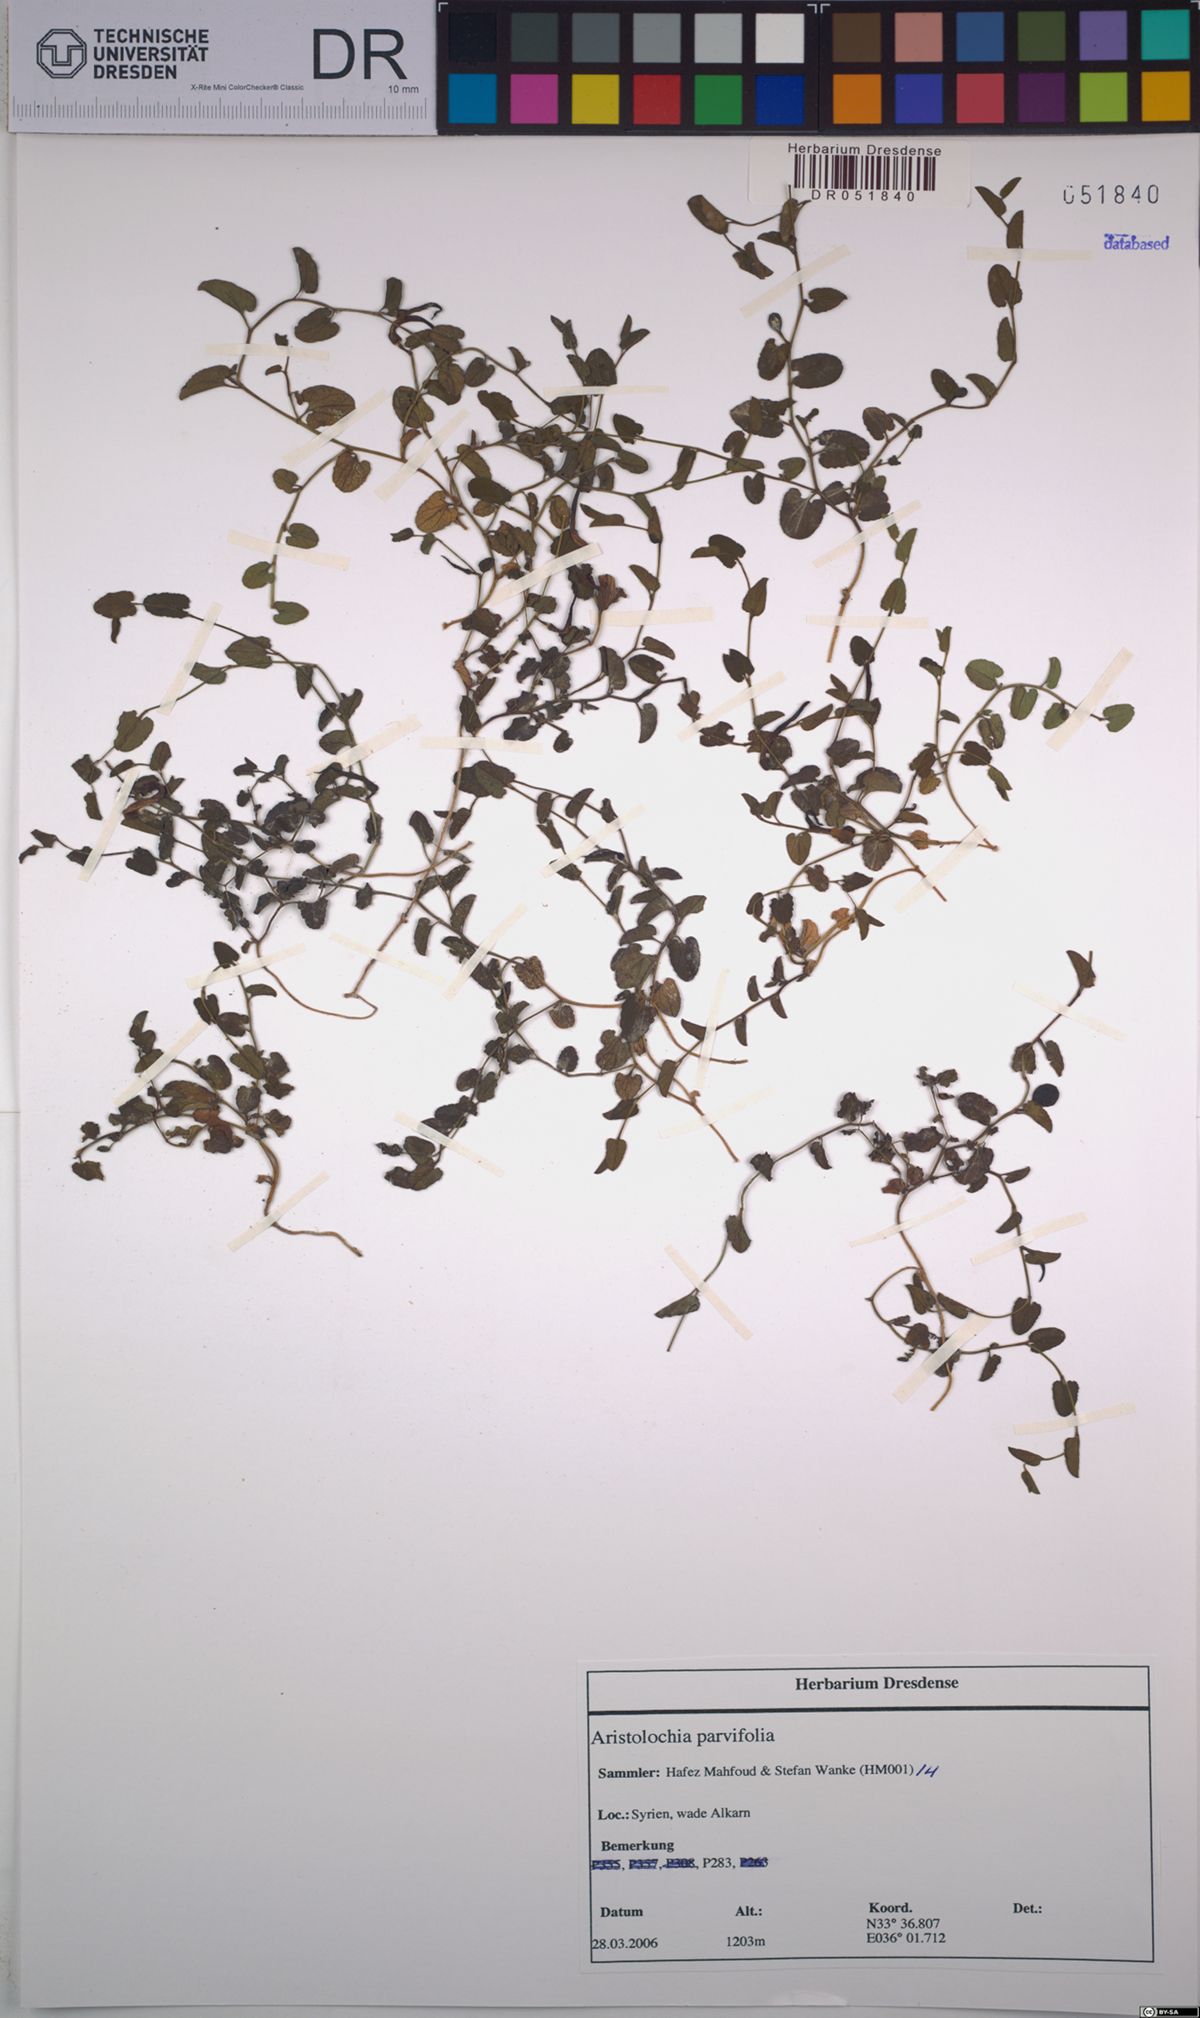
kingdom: Plantae
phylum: Tracheophyta
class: Magnoliopsida
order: Piperales
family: Aristolochiaceae
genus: Aristolochia
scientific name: Aristolochia parvifolia
